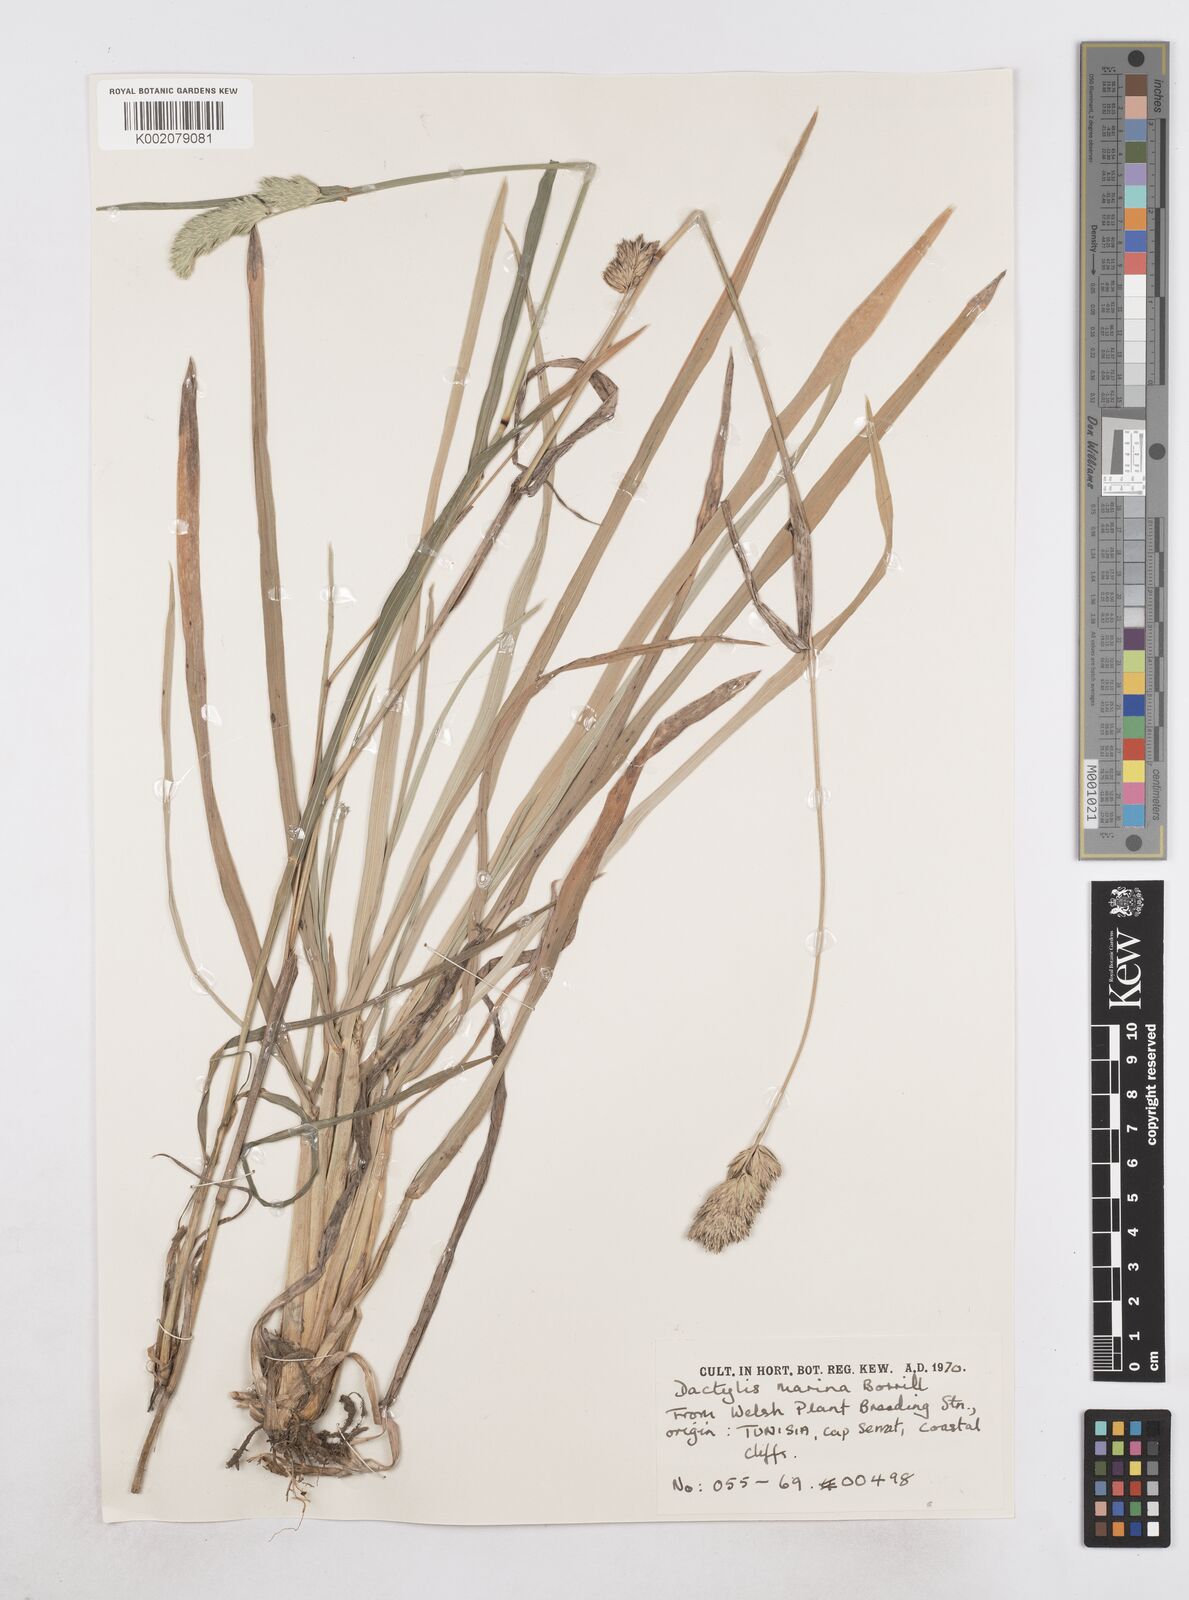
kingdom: Plantae
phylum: Tracheophyta
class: Liliopsida
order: Poales
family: Poaceae
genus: Dactylis
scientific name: Dactylis glomerata
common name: Orchardgrass
